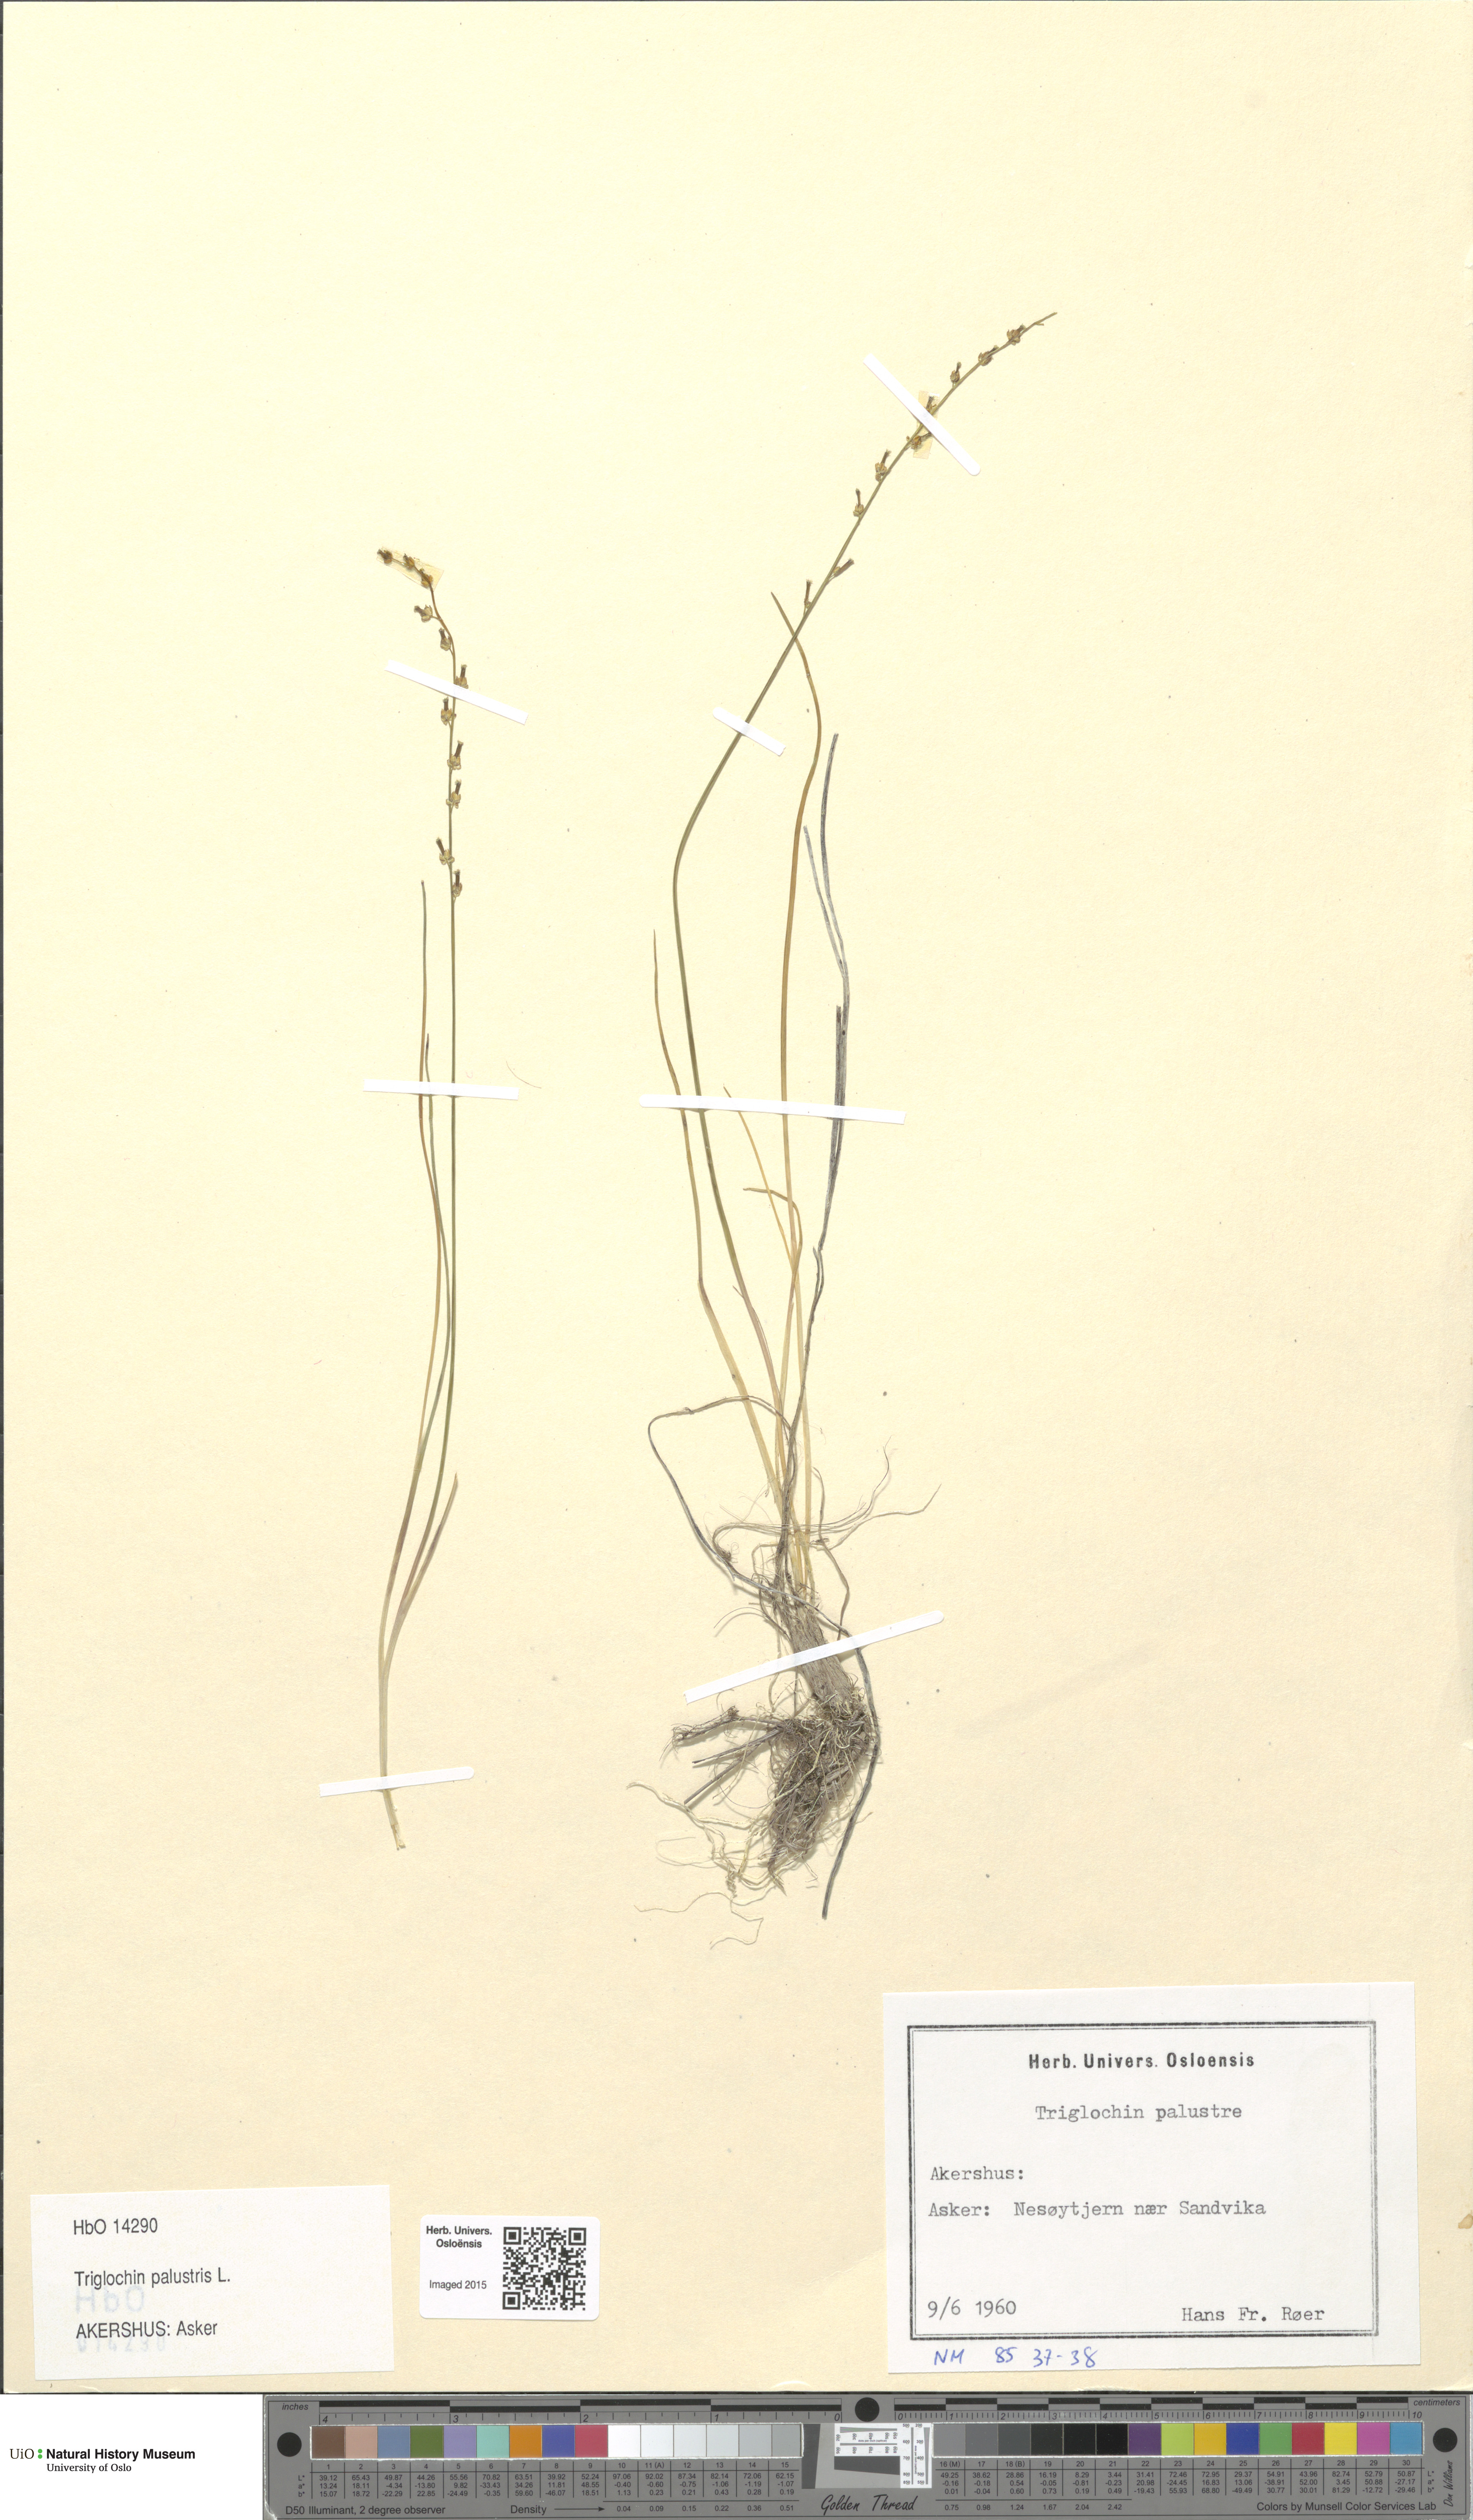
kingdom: Plantae
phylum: Tracheophyta
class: Liliopsida
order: Alismatales
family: Juncaginaceae
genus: Triglochin
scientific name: Triglochin palustris
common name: Marsh arrowgrass
